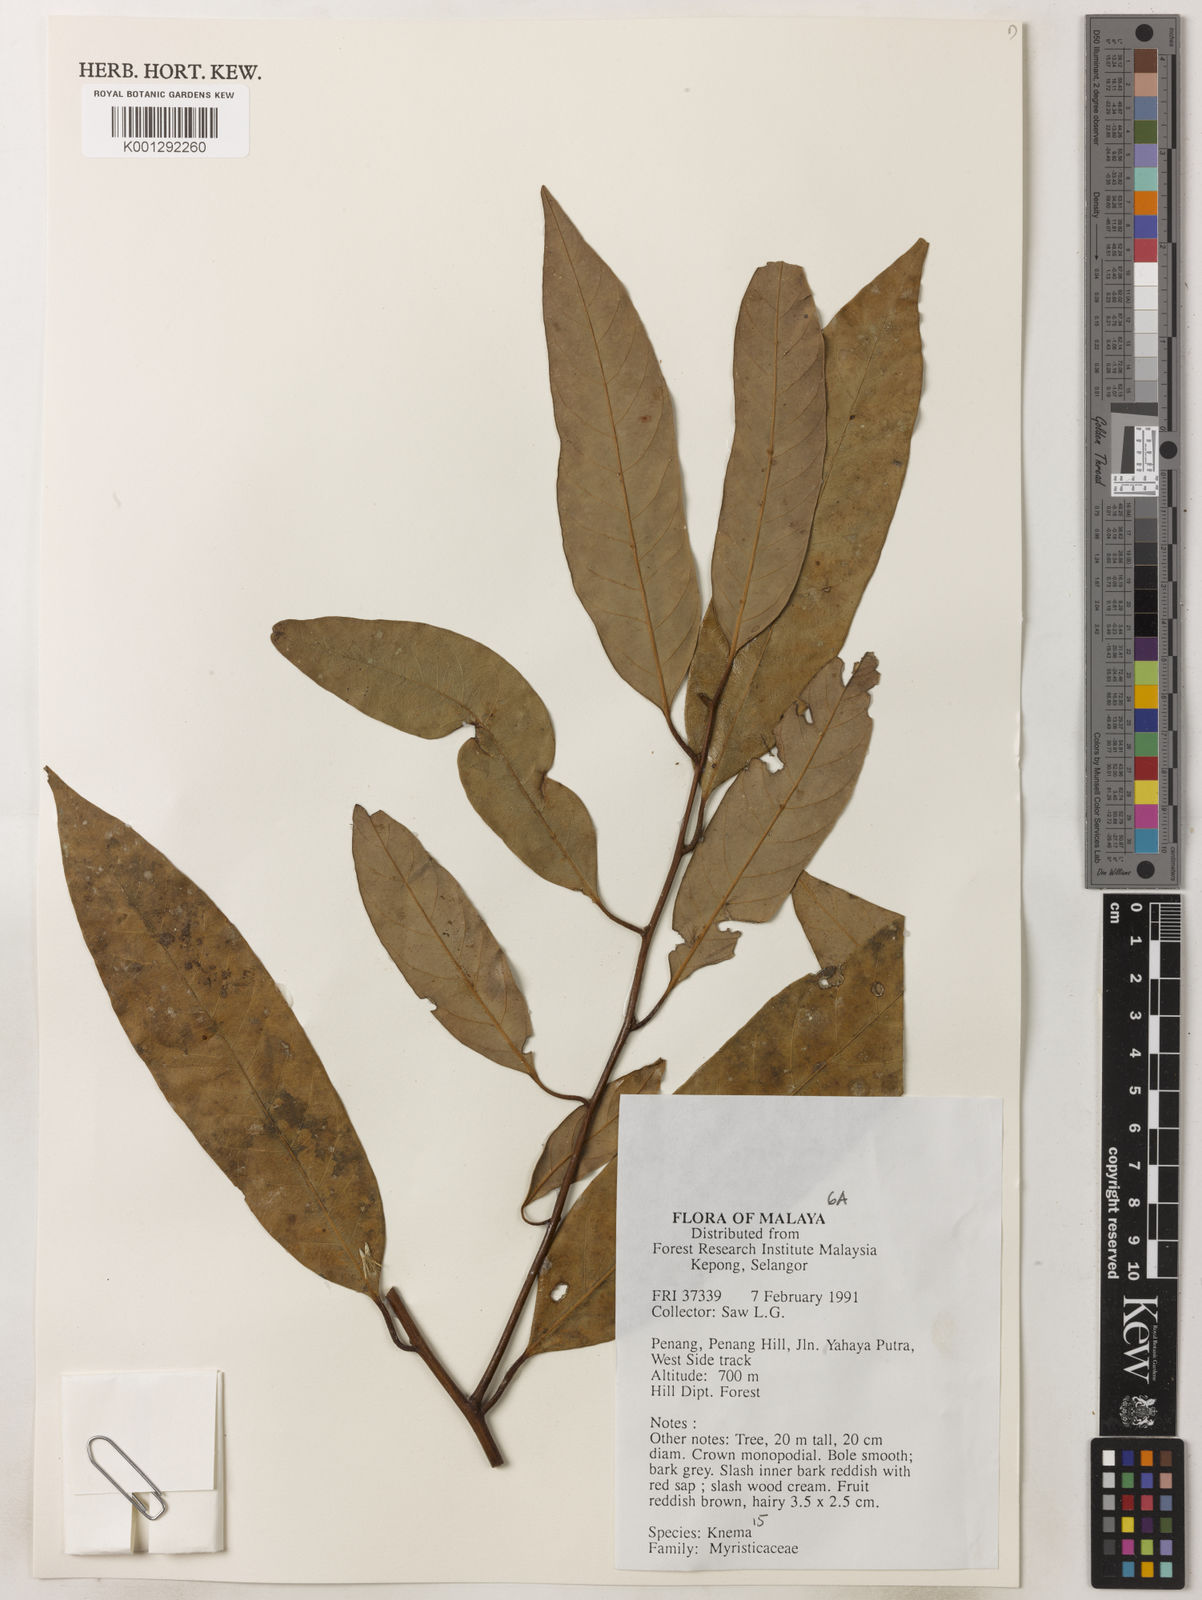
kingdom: Plantae
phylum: Tracheophyta
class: Magnoliopsida
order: Magnoliales
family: Myristicaceae
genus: Knema
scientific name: Knema
